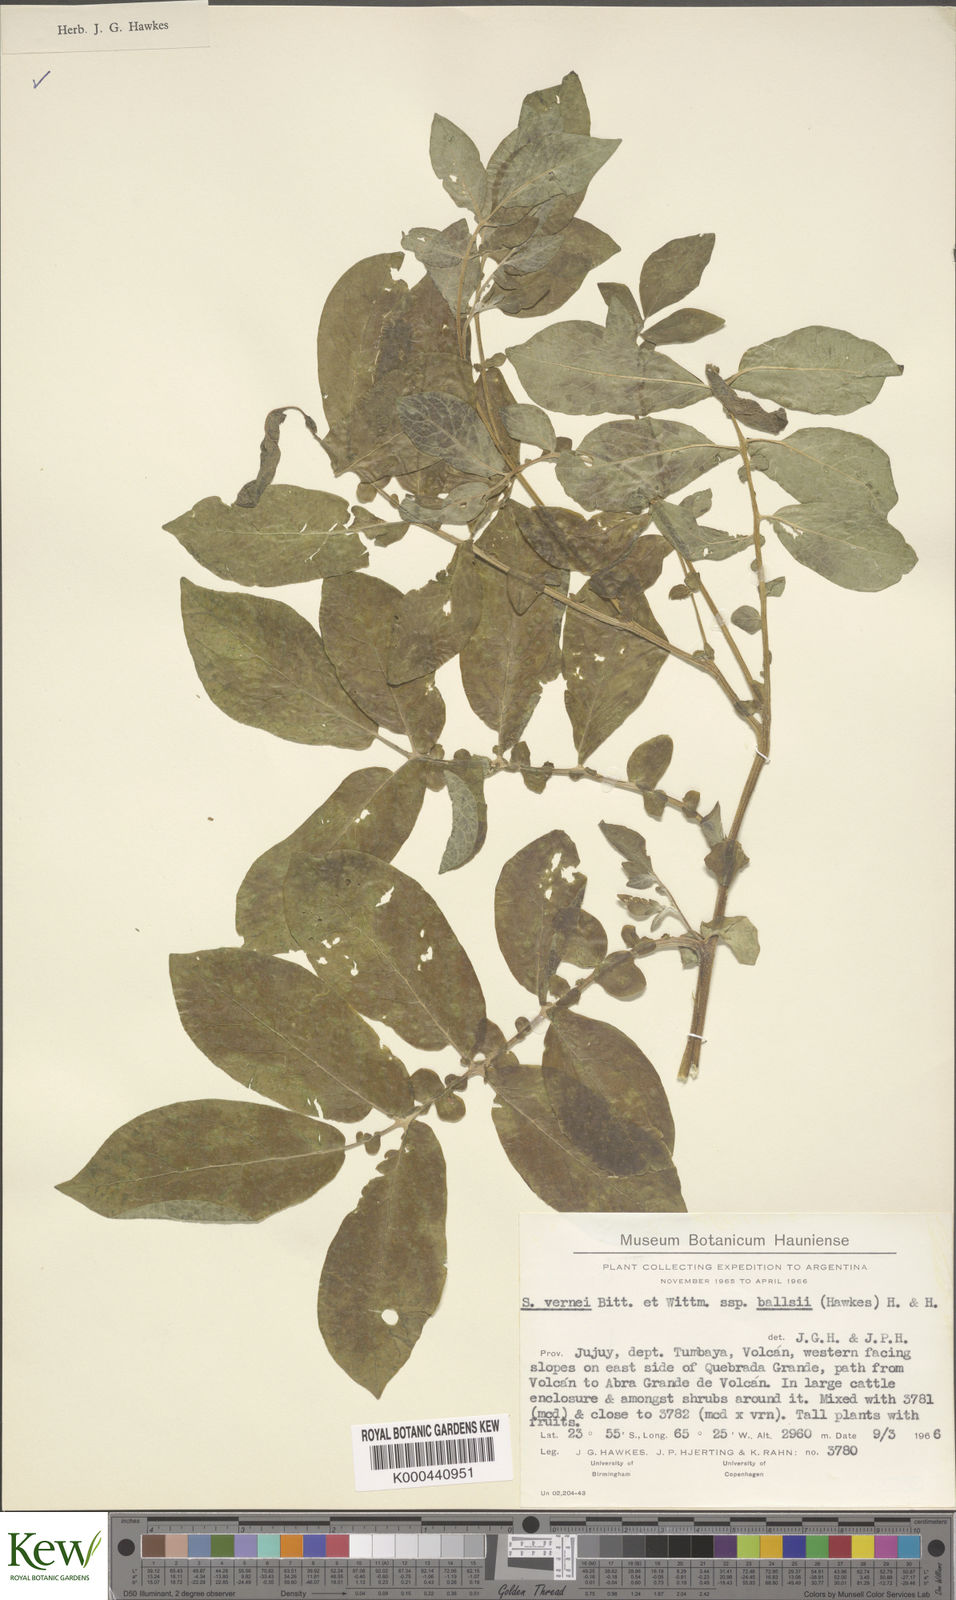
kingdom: Plantae
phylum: Tracheophyta
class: Magnoliopsida
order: Solanales
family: Solanaceae
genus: Solanum
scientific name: Solanum vernei
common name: Purple potato
